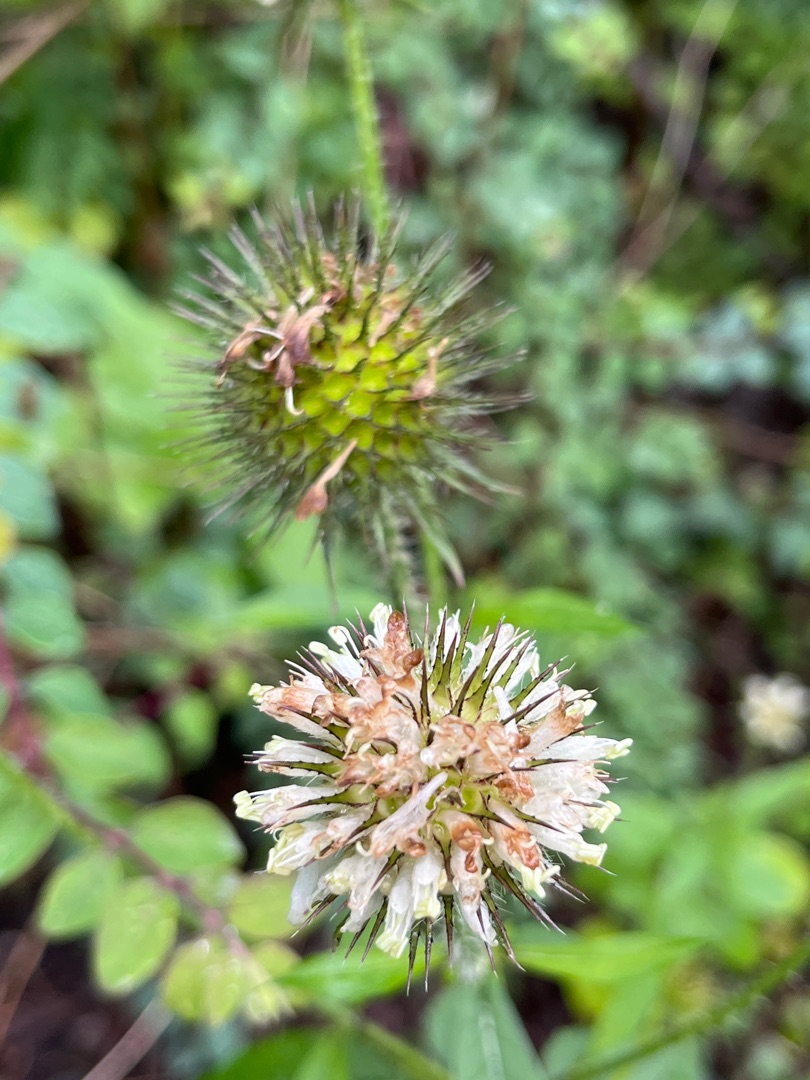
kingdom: Plantae
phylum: Tracheophyta
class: Magnoliopsida
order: Dipsacales
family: Caprifoliaceae
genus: Dipsacus
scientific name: Dipsacus strigosus
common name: Pindsvin-kartebolle
